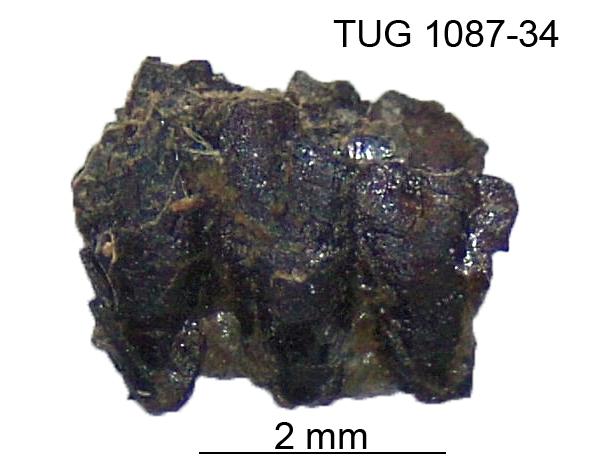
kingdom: Animalia
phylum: Annelida
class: Polychaeta
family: Leodicidae
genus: Eunicites
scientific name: Eunicites
